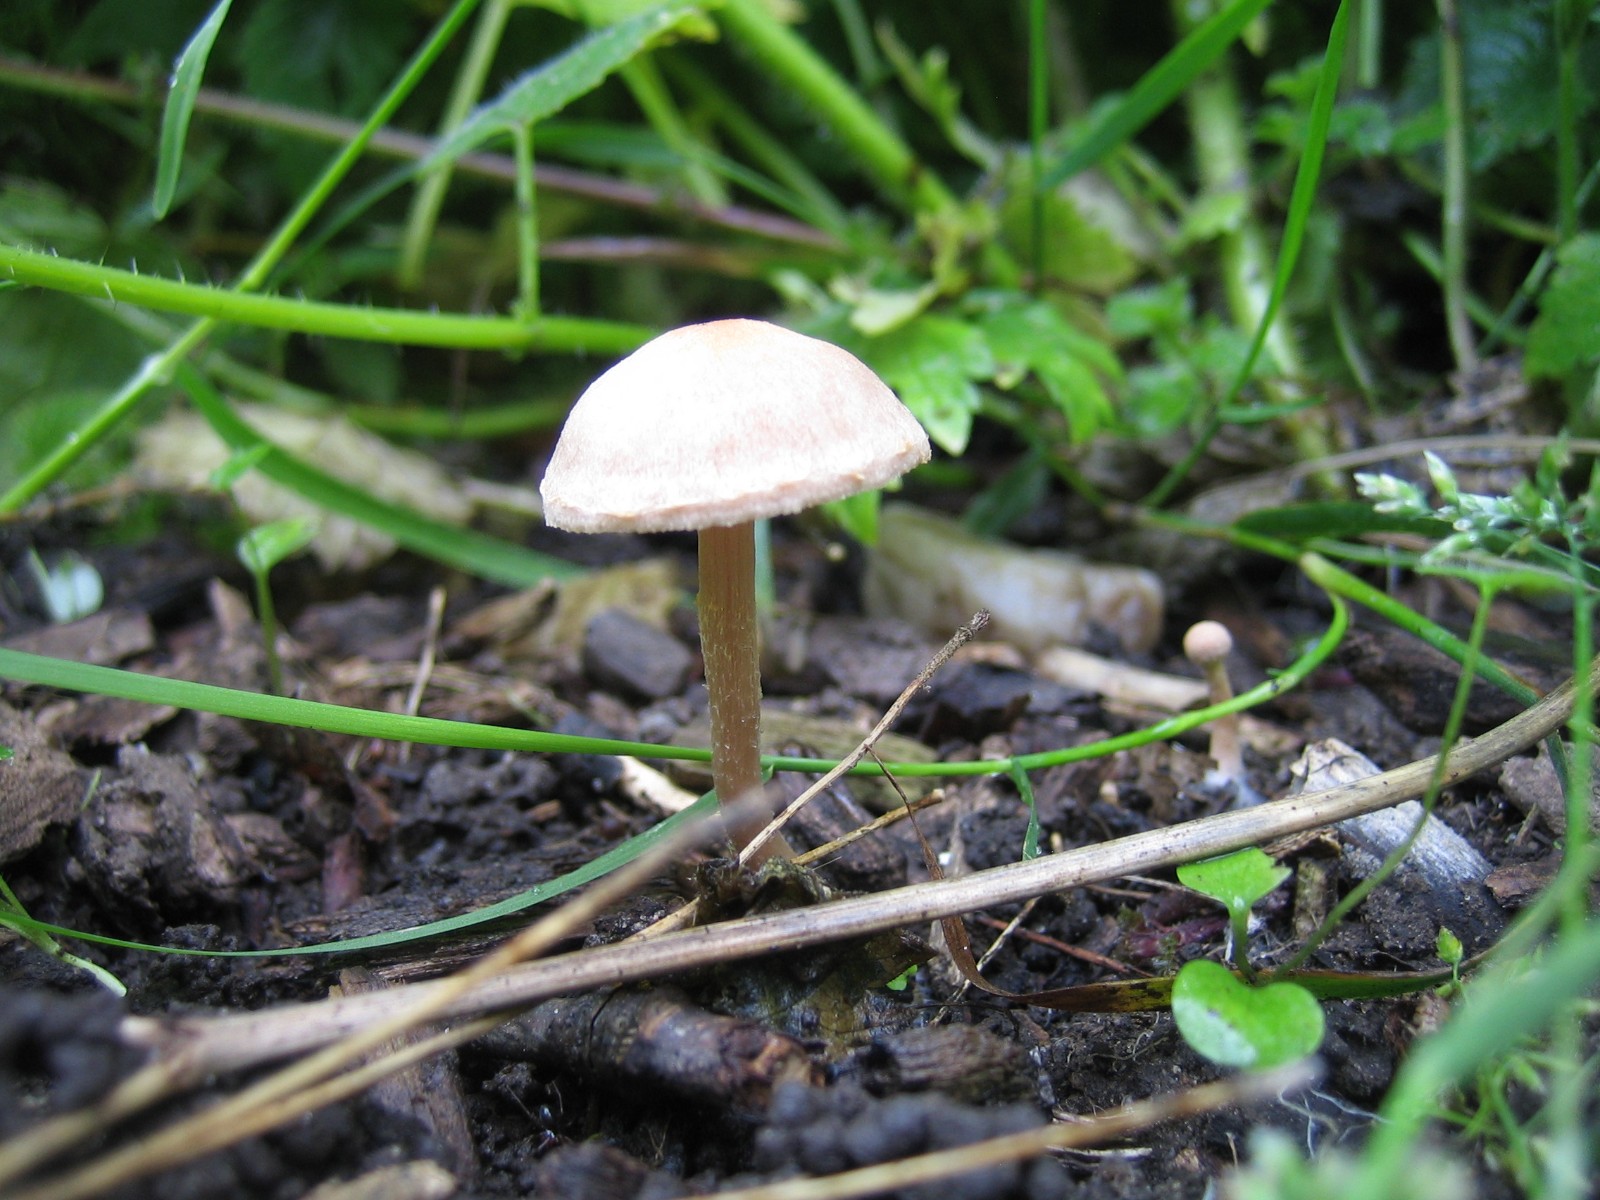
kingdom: Fungi
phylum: Basidiomycota
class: Agaricomycetes
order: Agaricales
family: Tubariaceae
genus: Tubaria
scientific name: Tubaria
